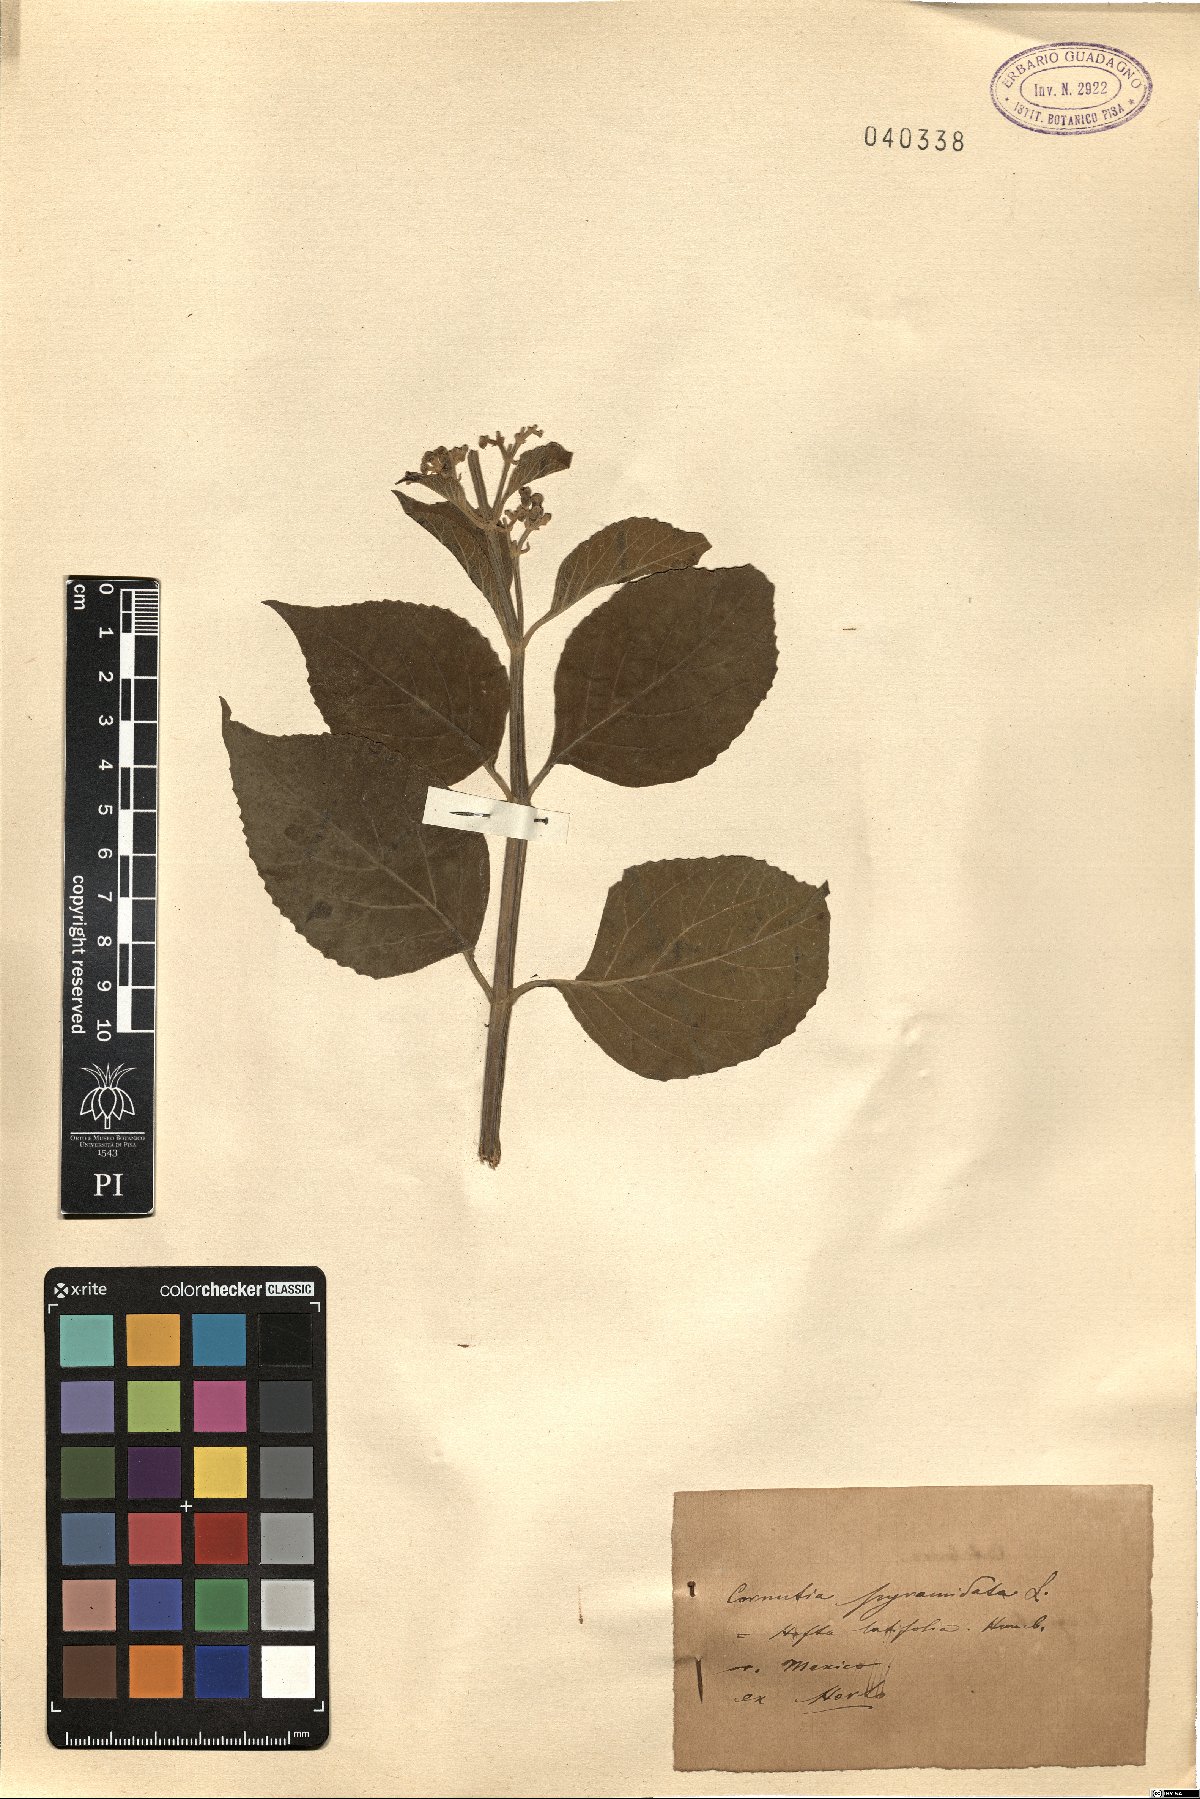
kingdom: Plantae
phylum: Tracheophyta
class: Magnoliopsida
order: Lamiales
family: Lamiaceae
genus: Cornutia
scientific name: Cornutia pyramidata
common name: Azulejo
